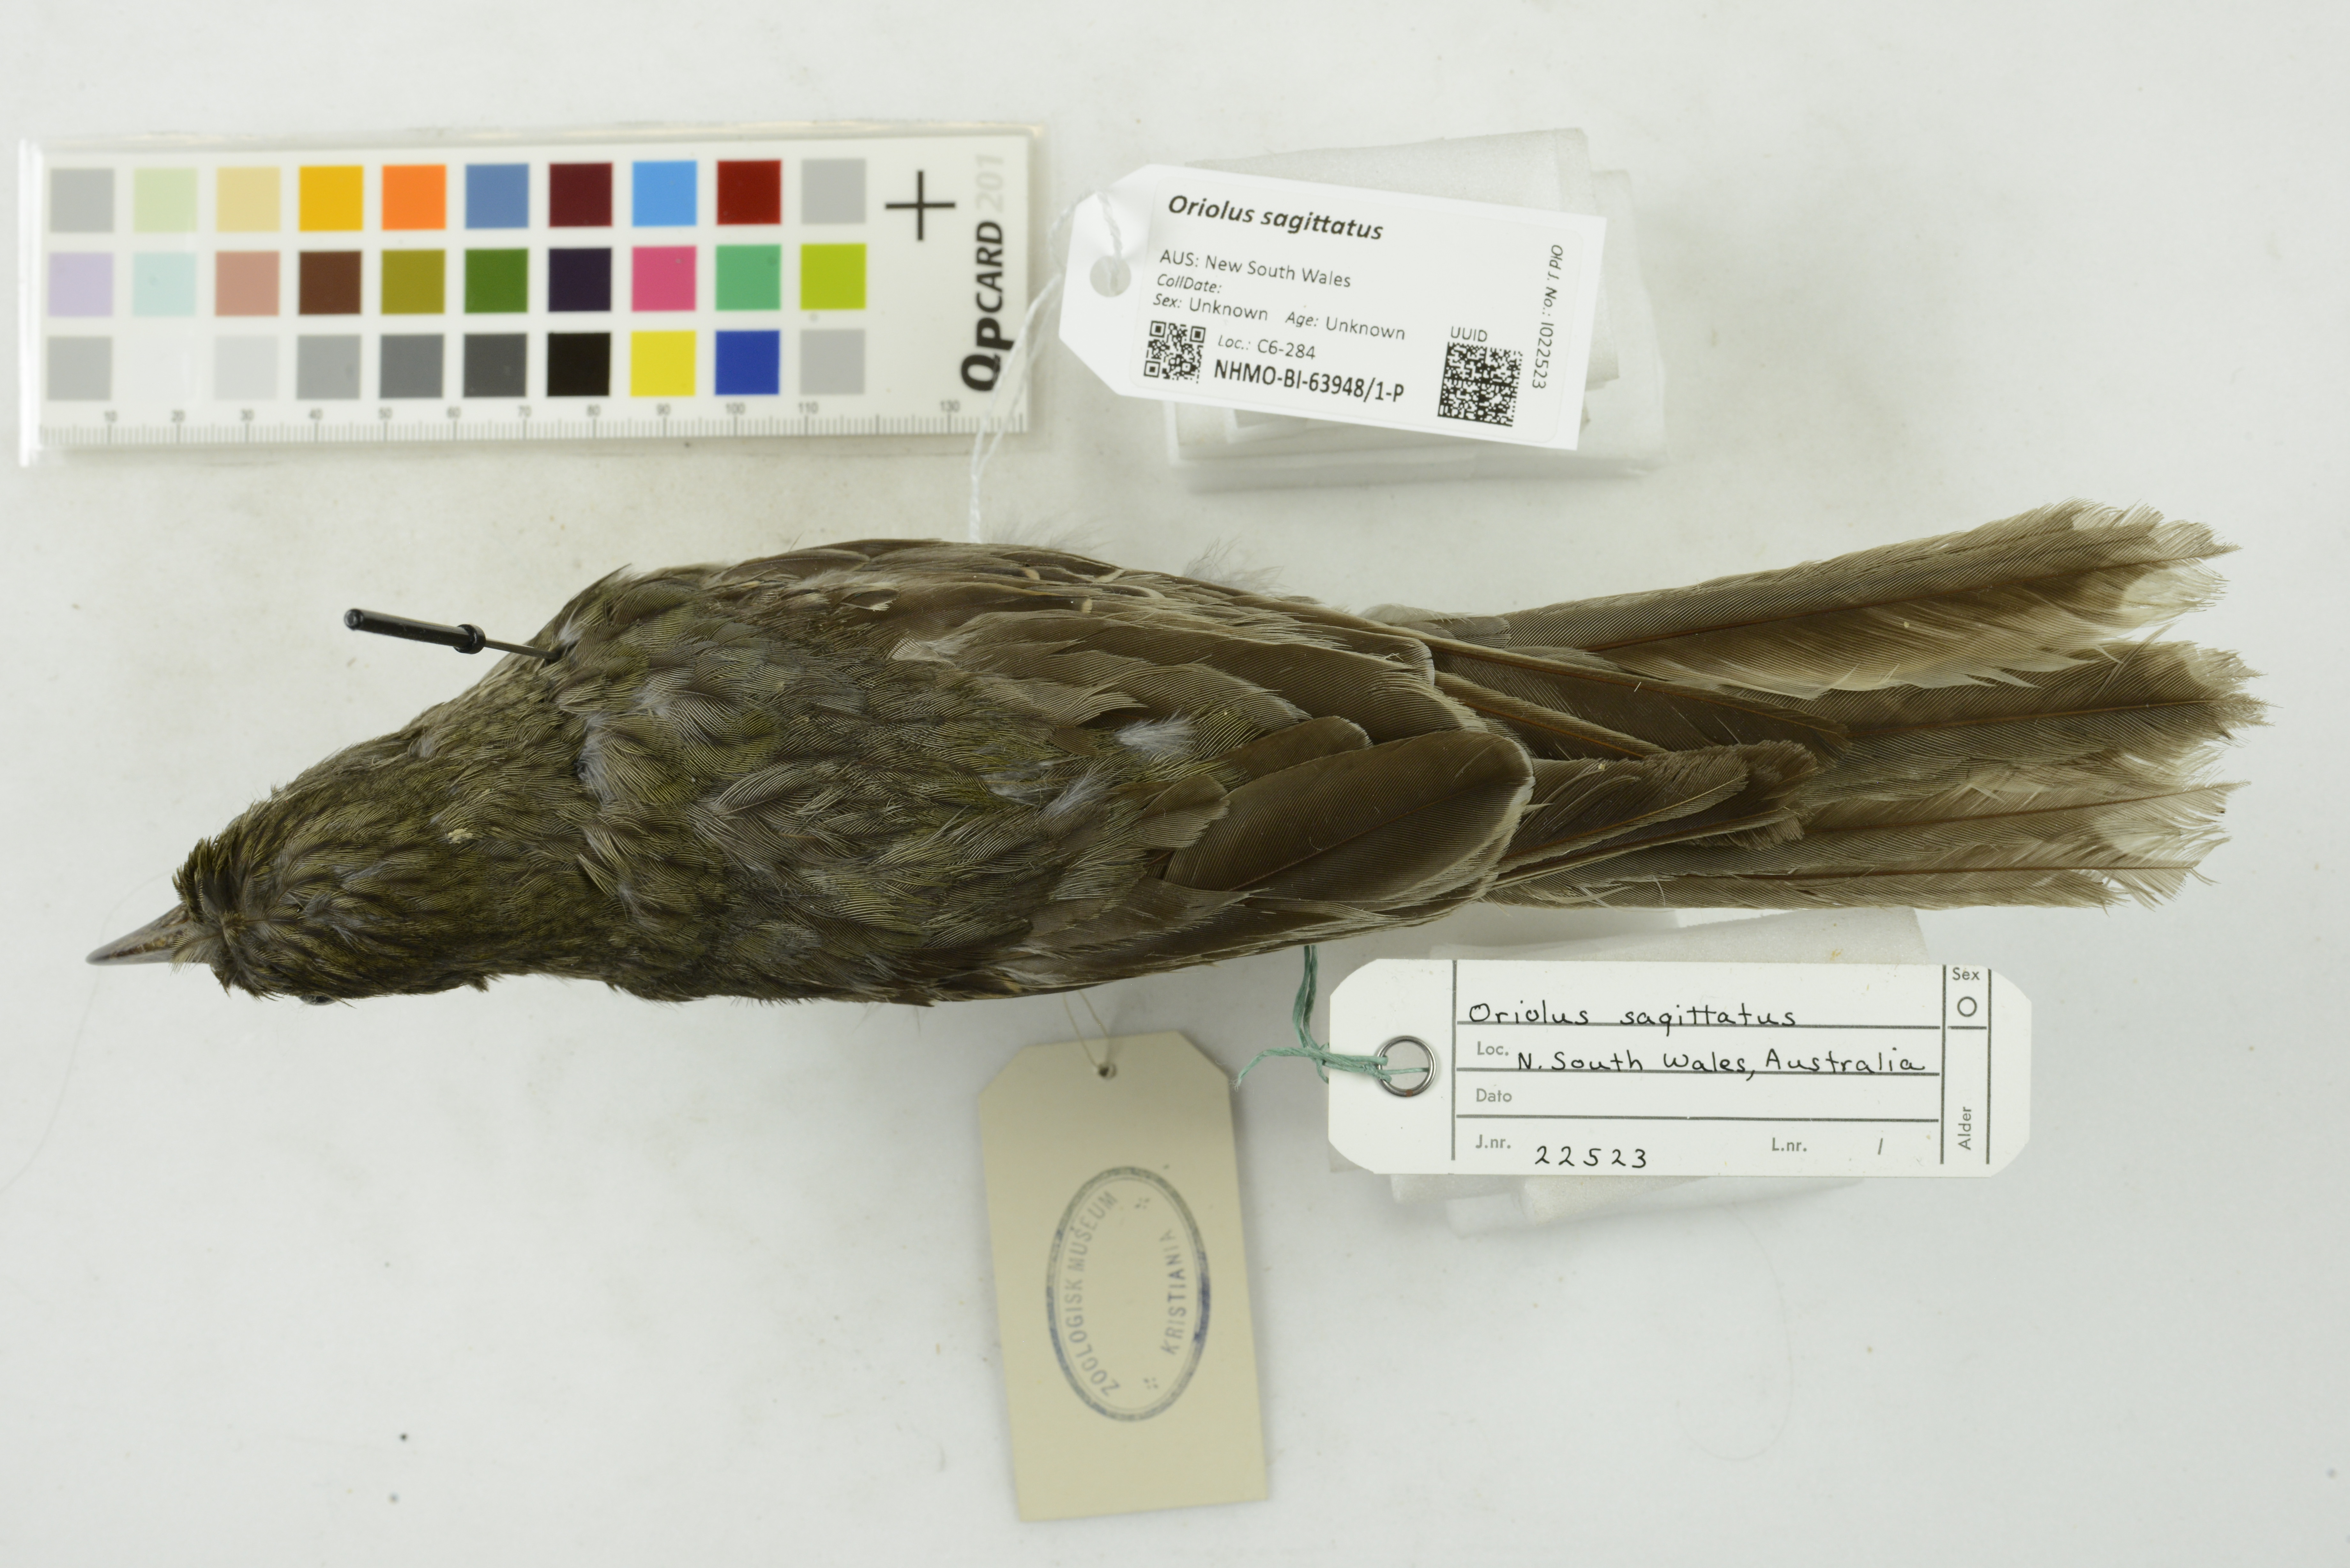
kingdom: Animalia
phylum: Chordata
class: Aves
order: Passeriformes
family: Oriolidae
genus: Oriolus
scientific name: Oriolus sagittatus
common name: Olive-backed oriole
